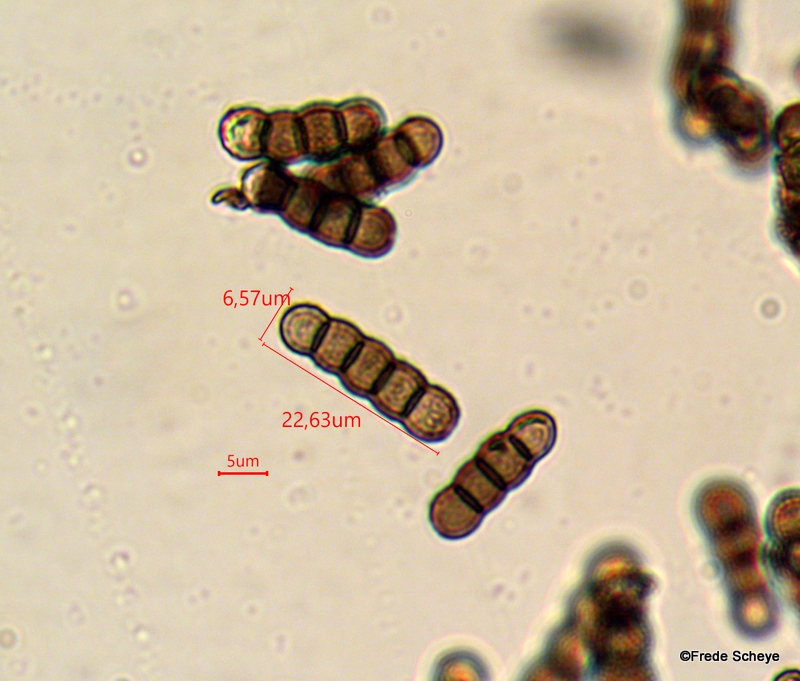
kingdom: Fungi
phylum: Ascomycota
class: Dothideomycetes
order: Pleosporales
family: Torulaceae
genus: Torula
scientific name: Torula herbarum
